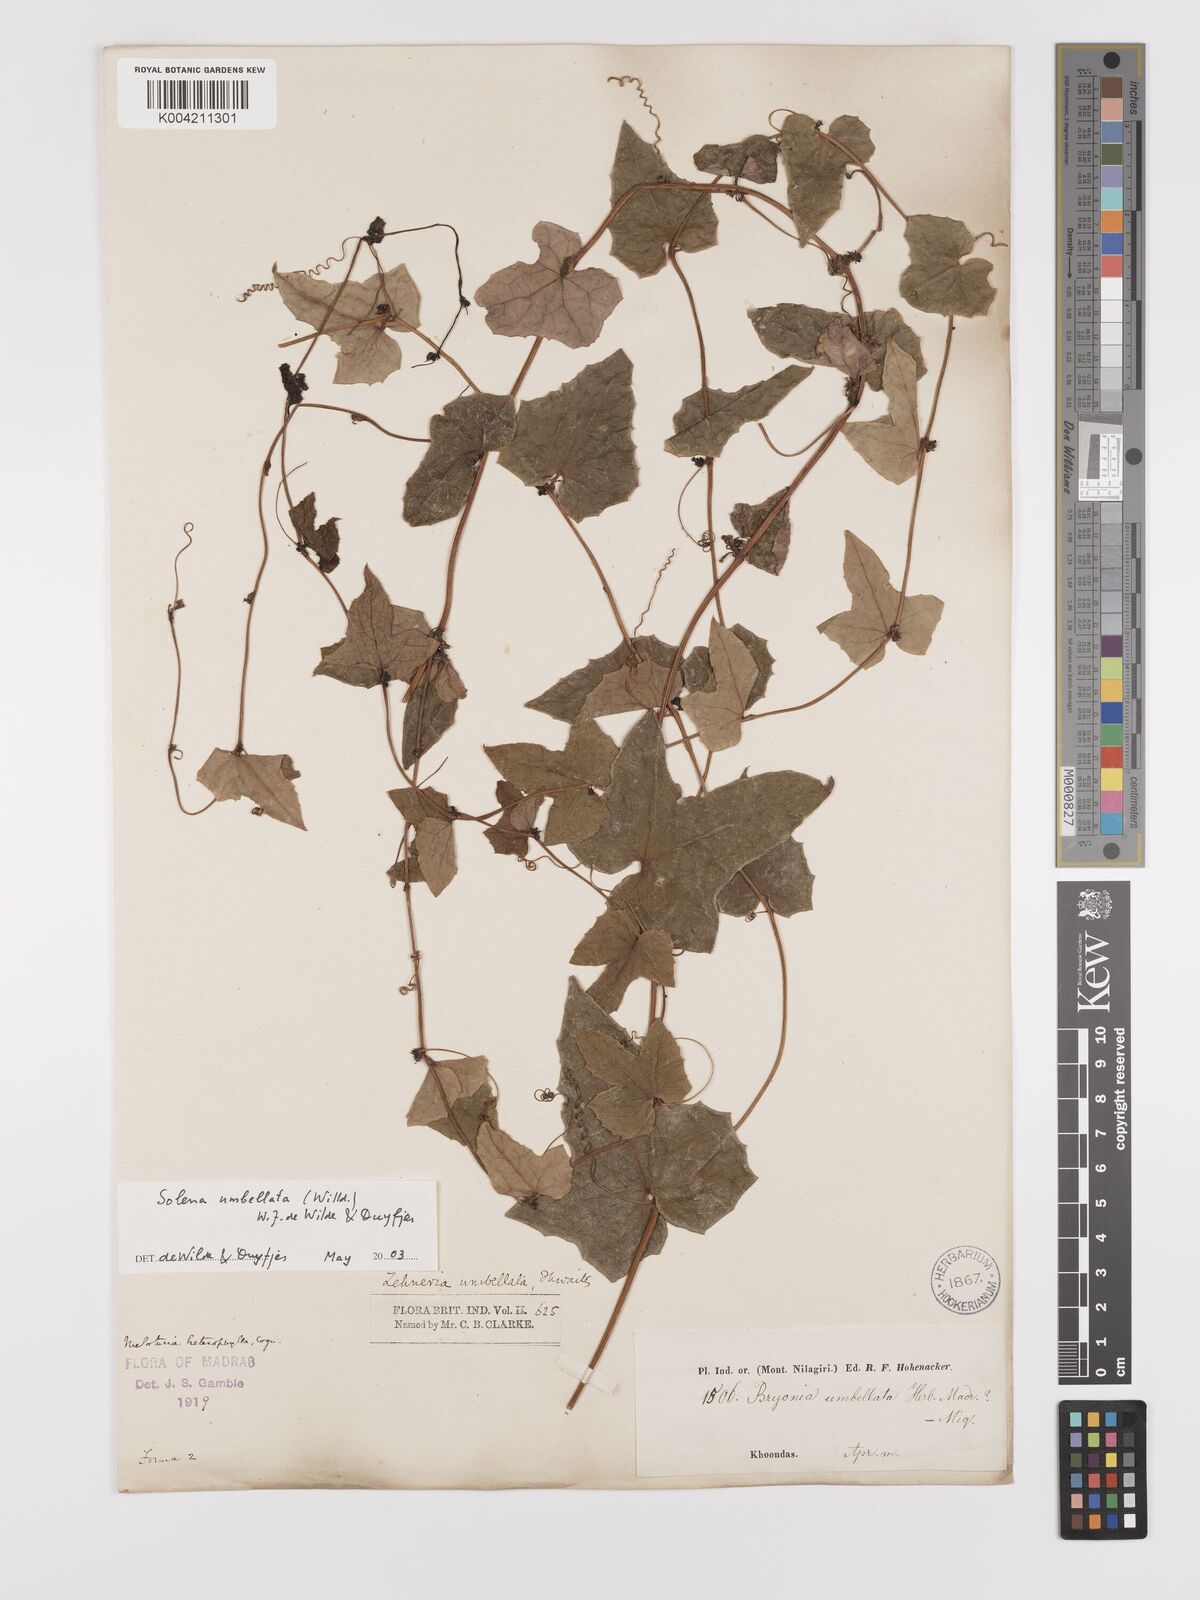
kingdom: Plantae
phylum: Tracheophyta
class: Magnoliopsida
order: Cucurbitales
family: Cucurbitaceae
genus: Solena
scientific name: Solena amplexicaulis
